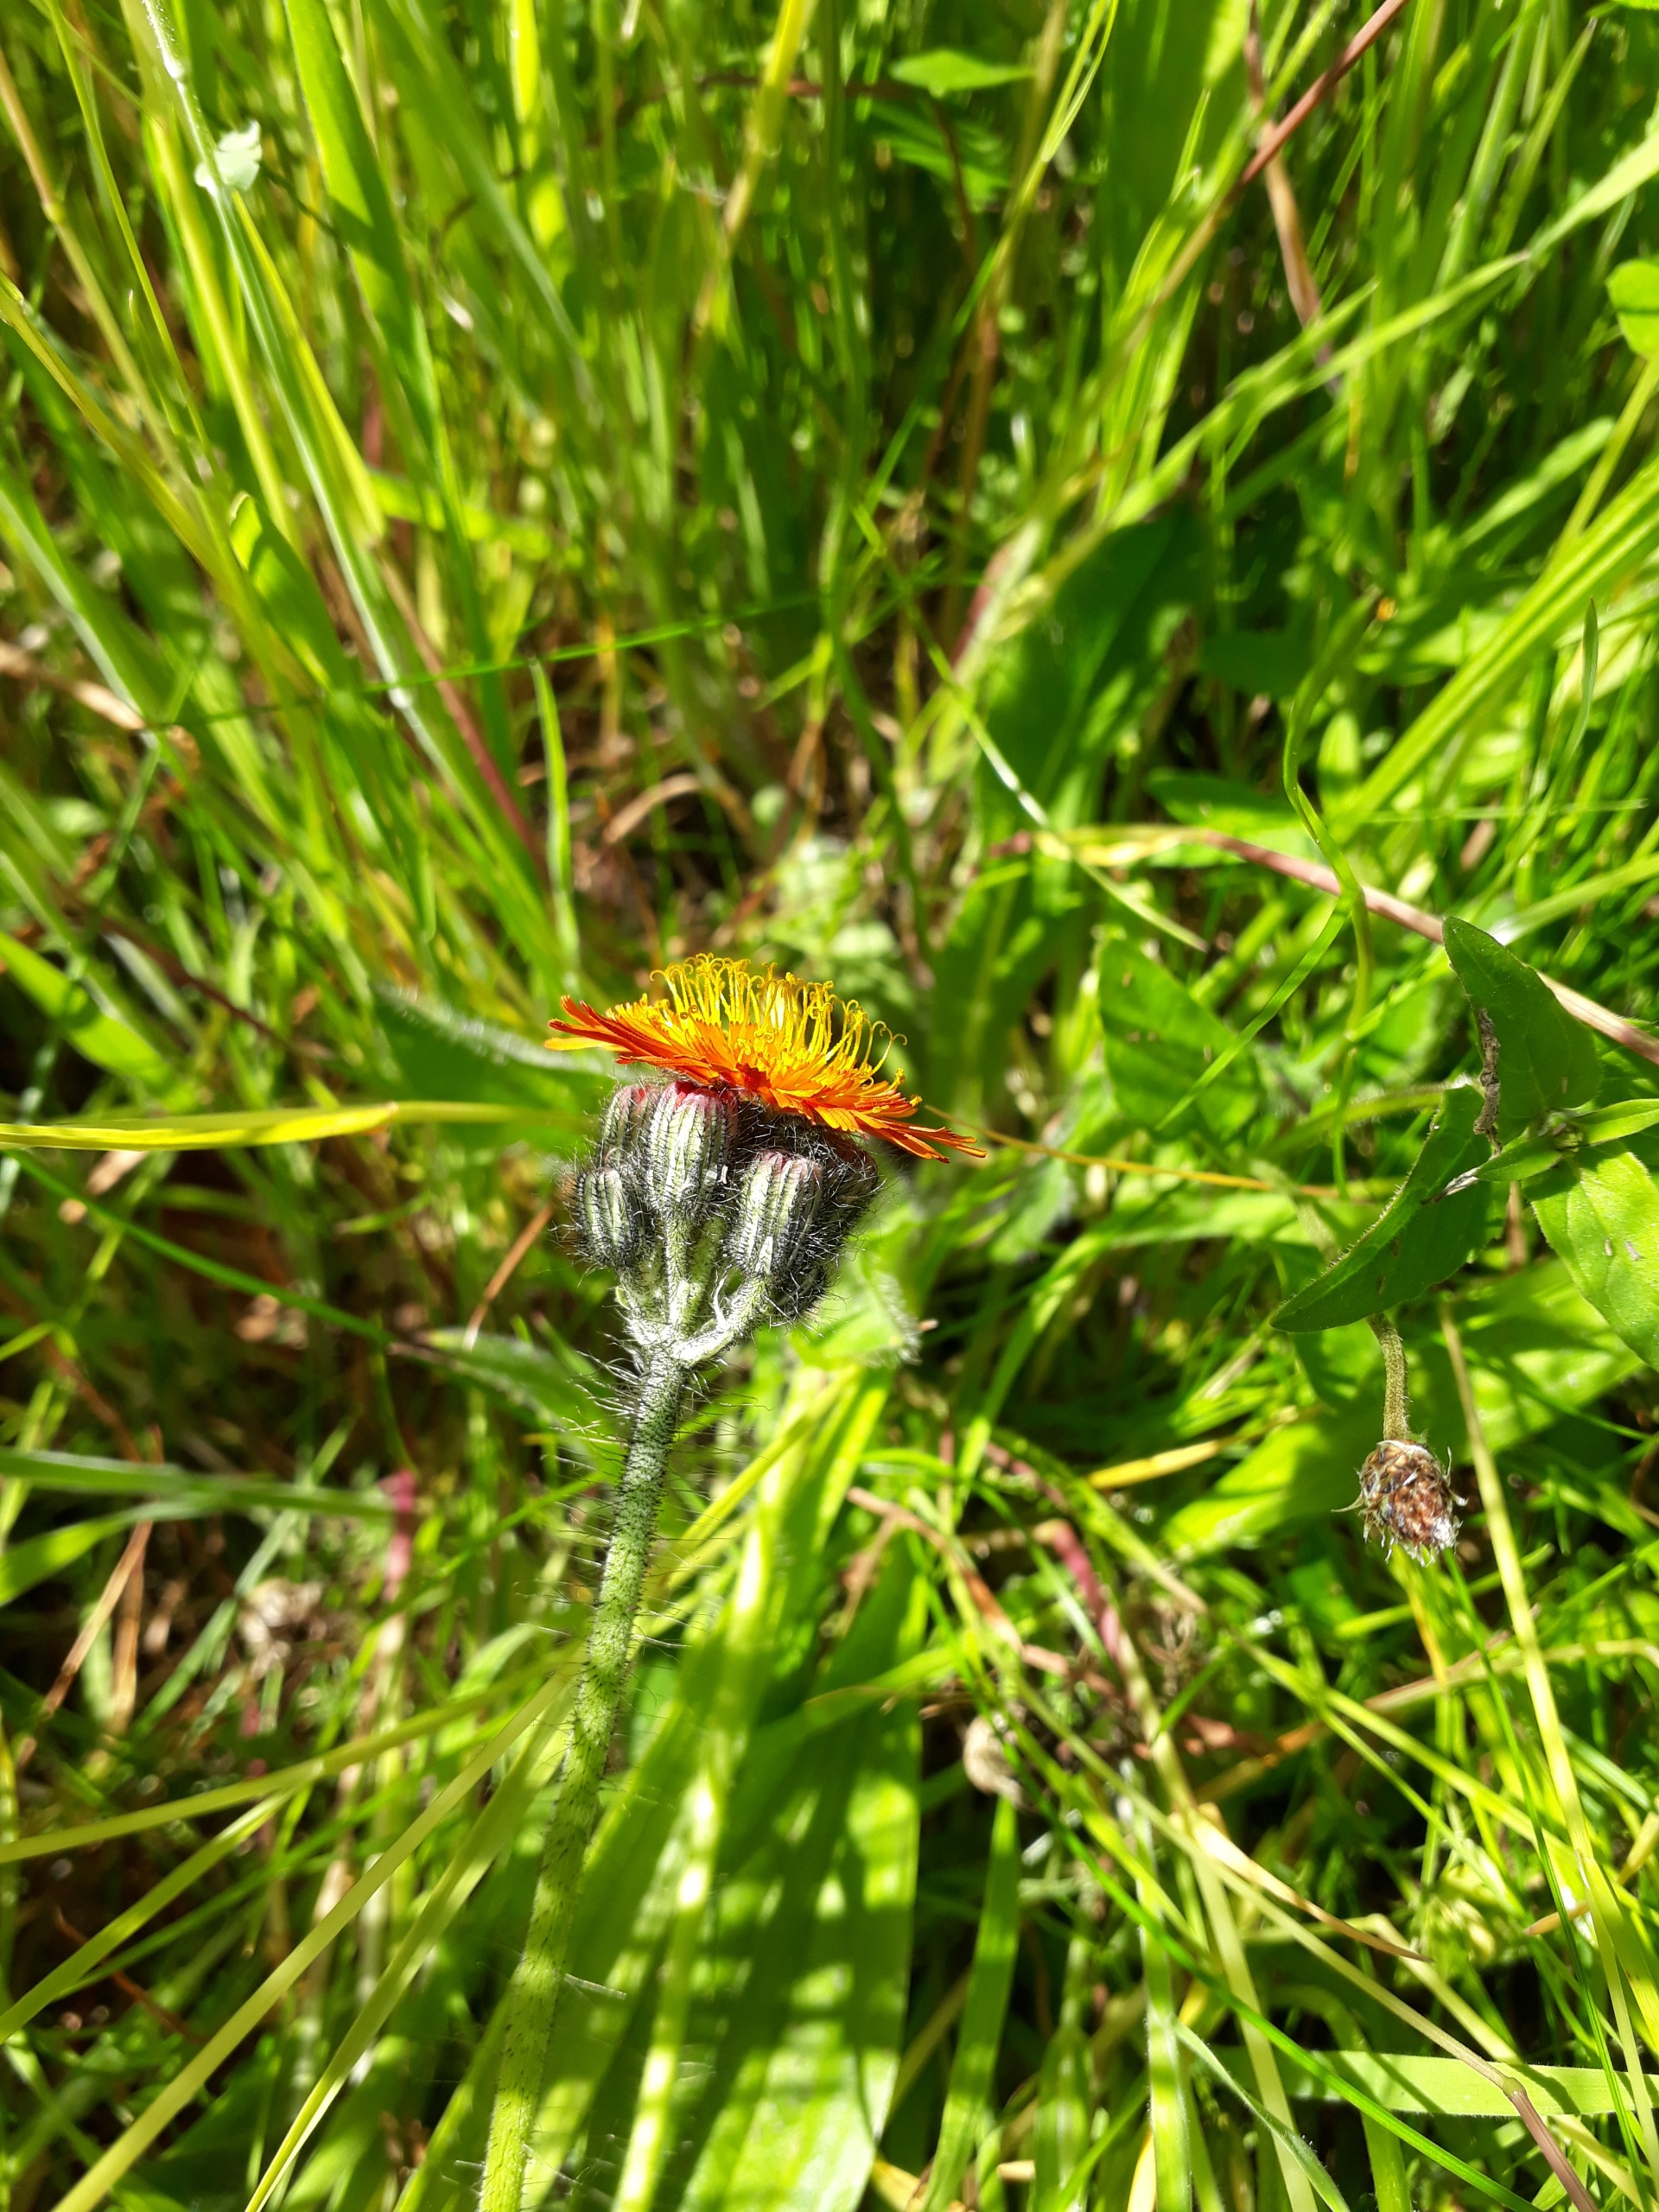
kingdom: Plantae
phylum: Tracheophyta
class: Magnoliopsida
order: Asterales
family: Asteraceae
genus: Pilosella
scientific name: Pilosella aurantiaca
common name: Pomerans-høgeurt
